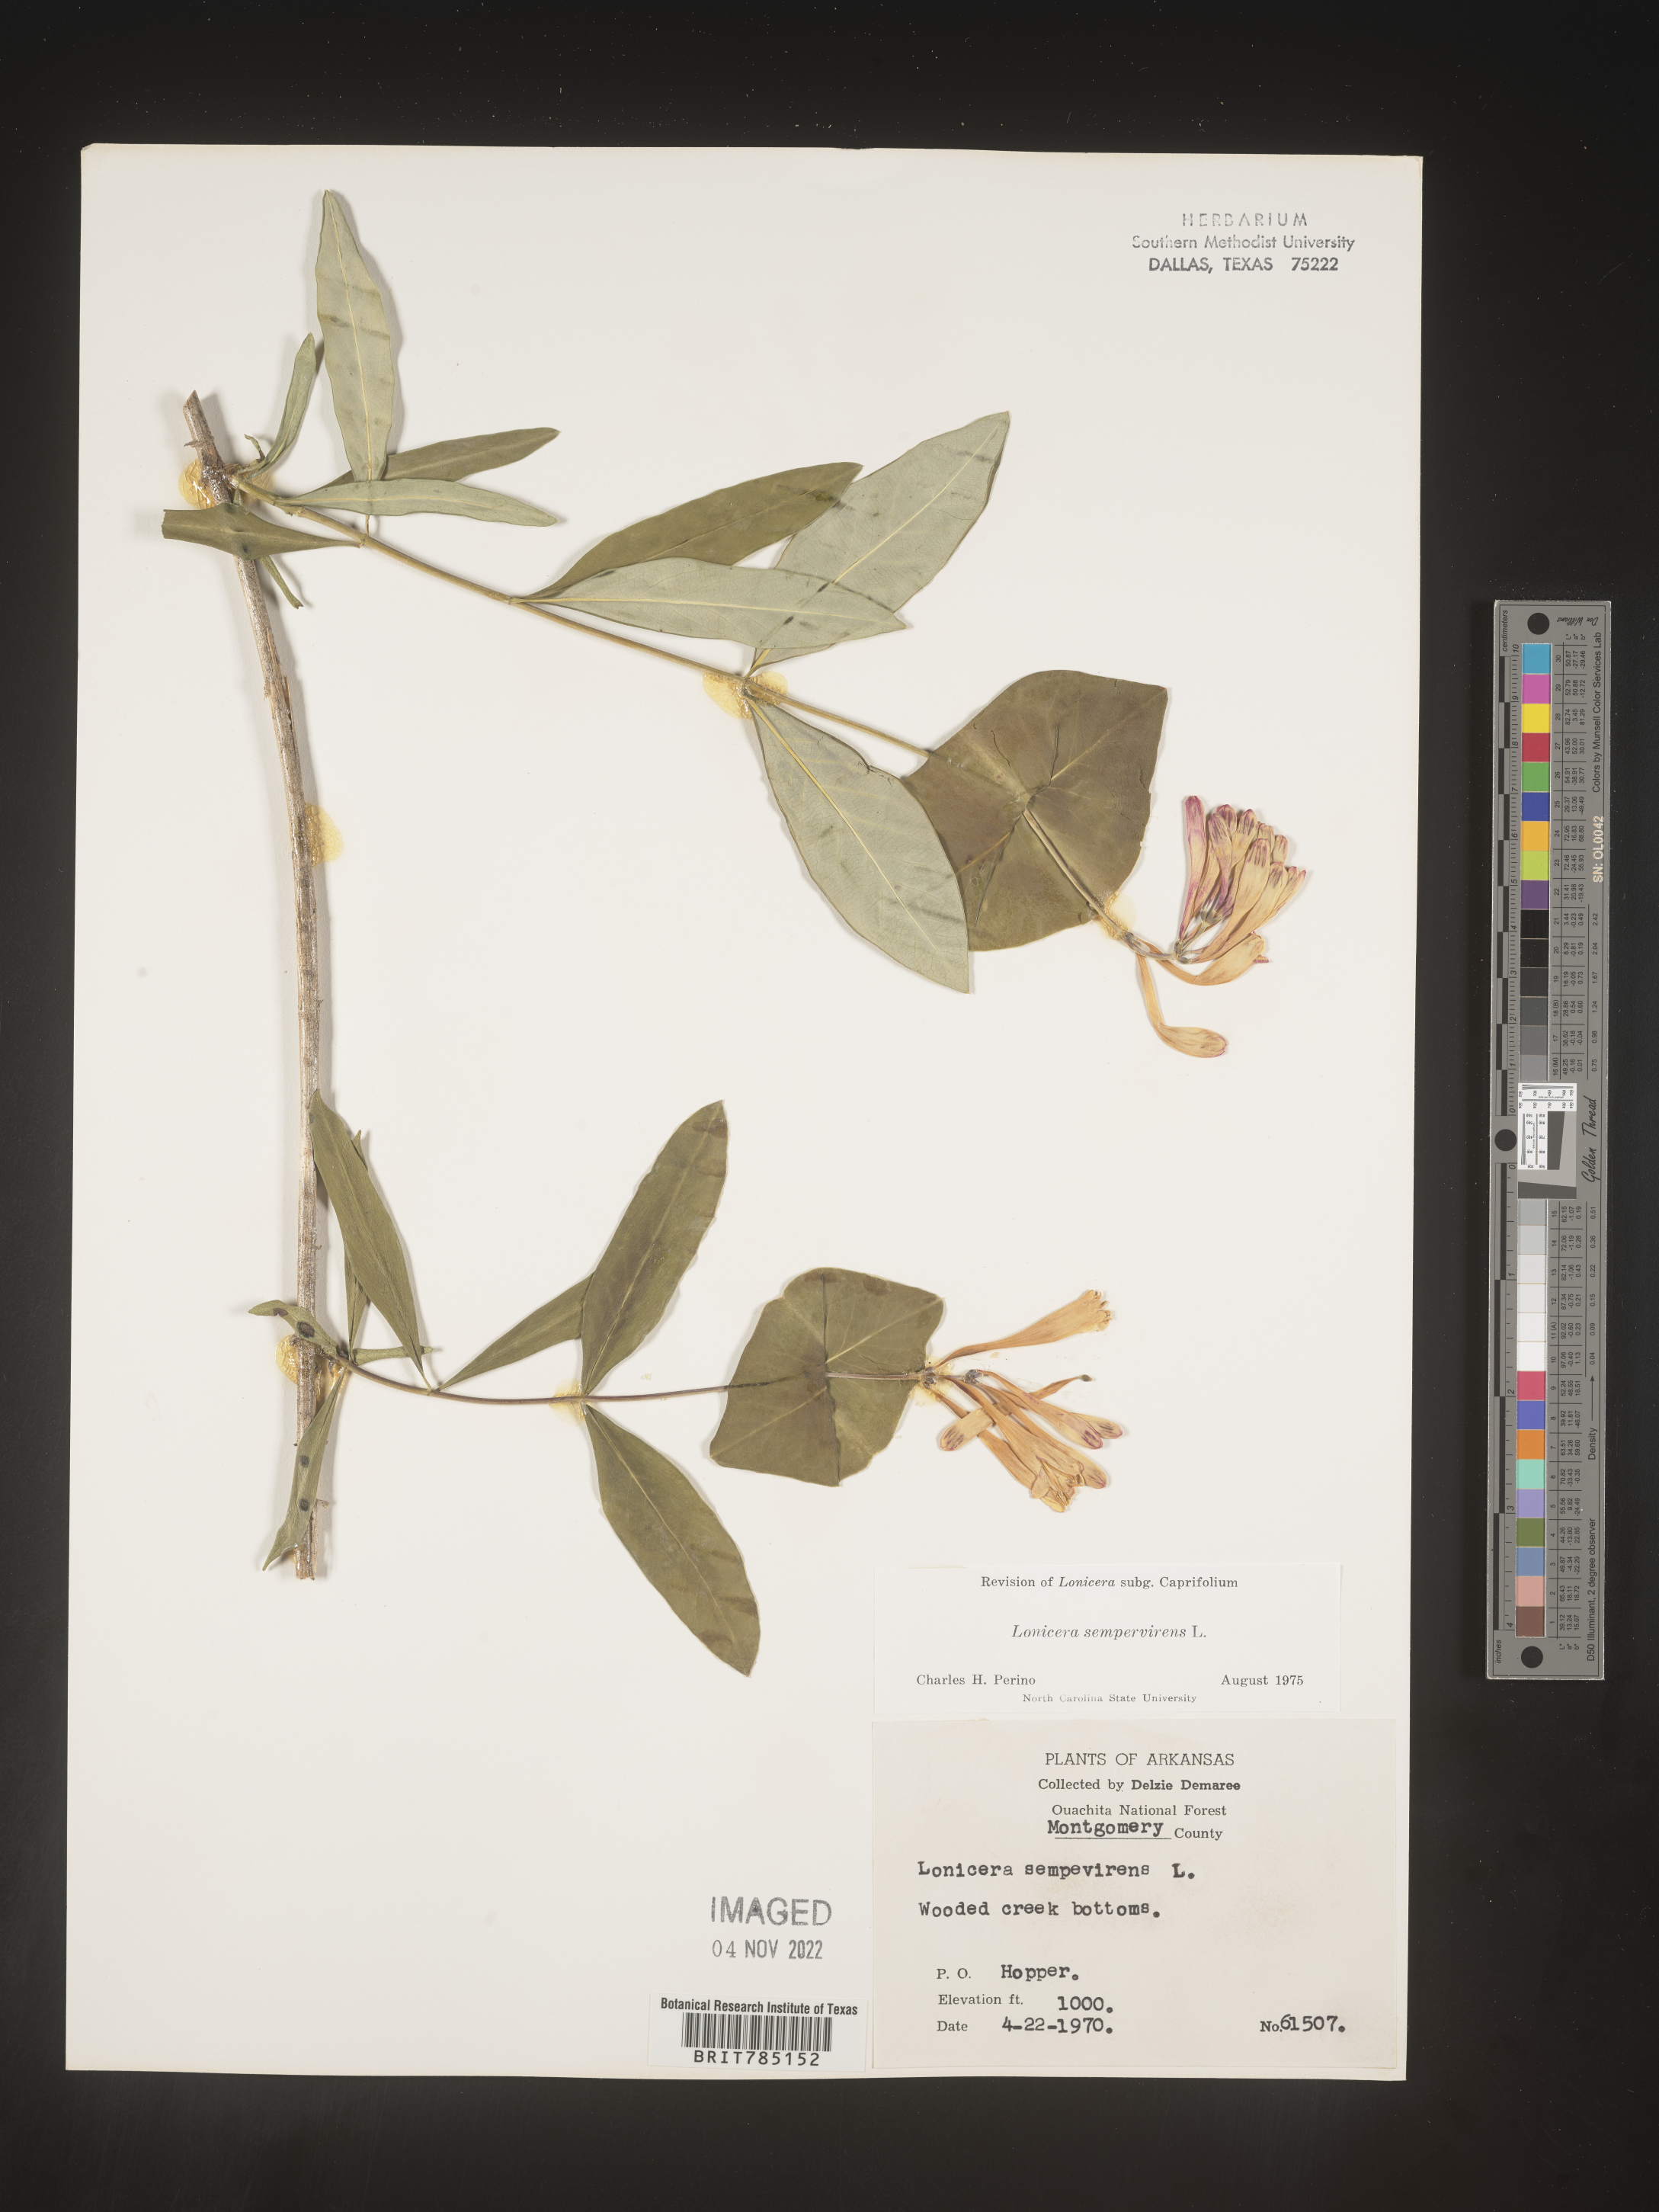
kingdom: Plantae
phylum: Tracheophyta
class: Magnoliopsida
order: Dipsacales
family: Caprifoliaceae
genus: Lonicera
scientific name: Lonicera sempervirens
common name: Coral honeysuckle
